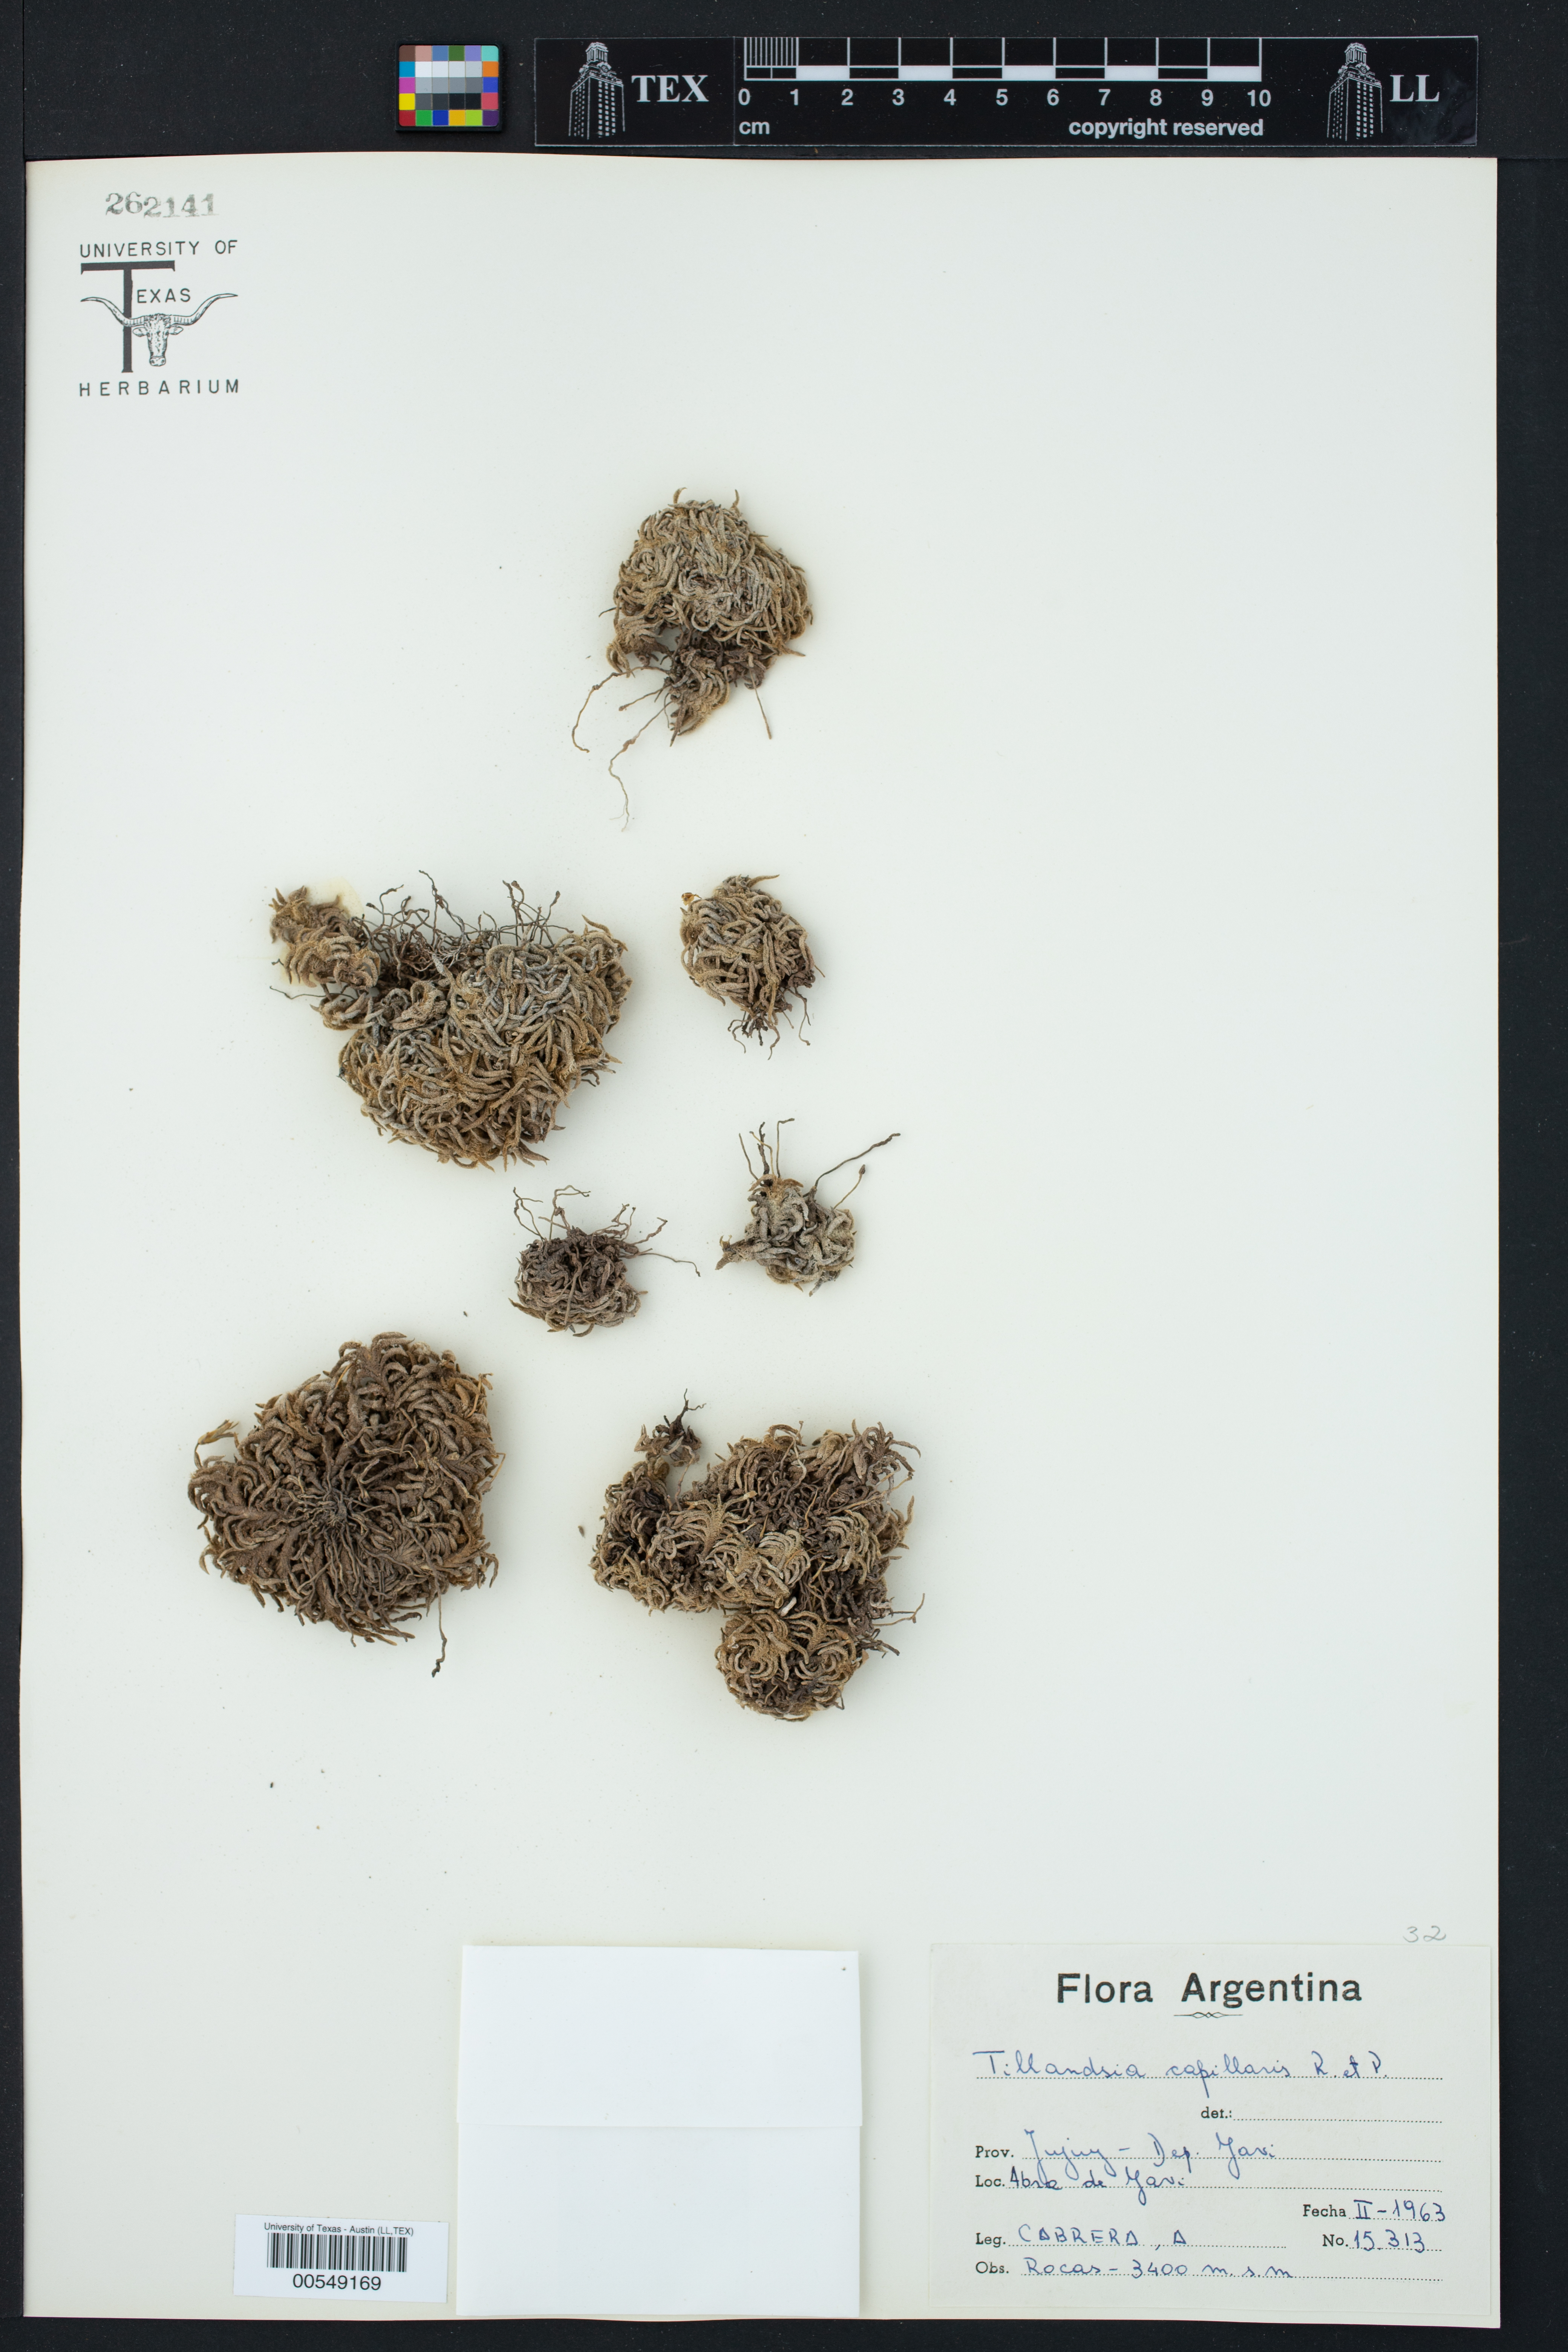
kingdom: Plantae
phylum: Tracheophyta
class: Liliopsida
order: Poales
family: Bromeliaceae
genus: Tillandsia
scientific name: Tillandsia capillaris
